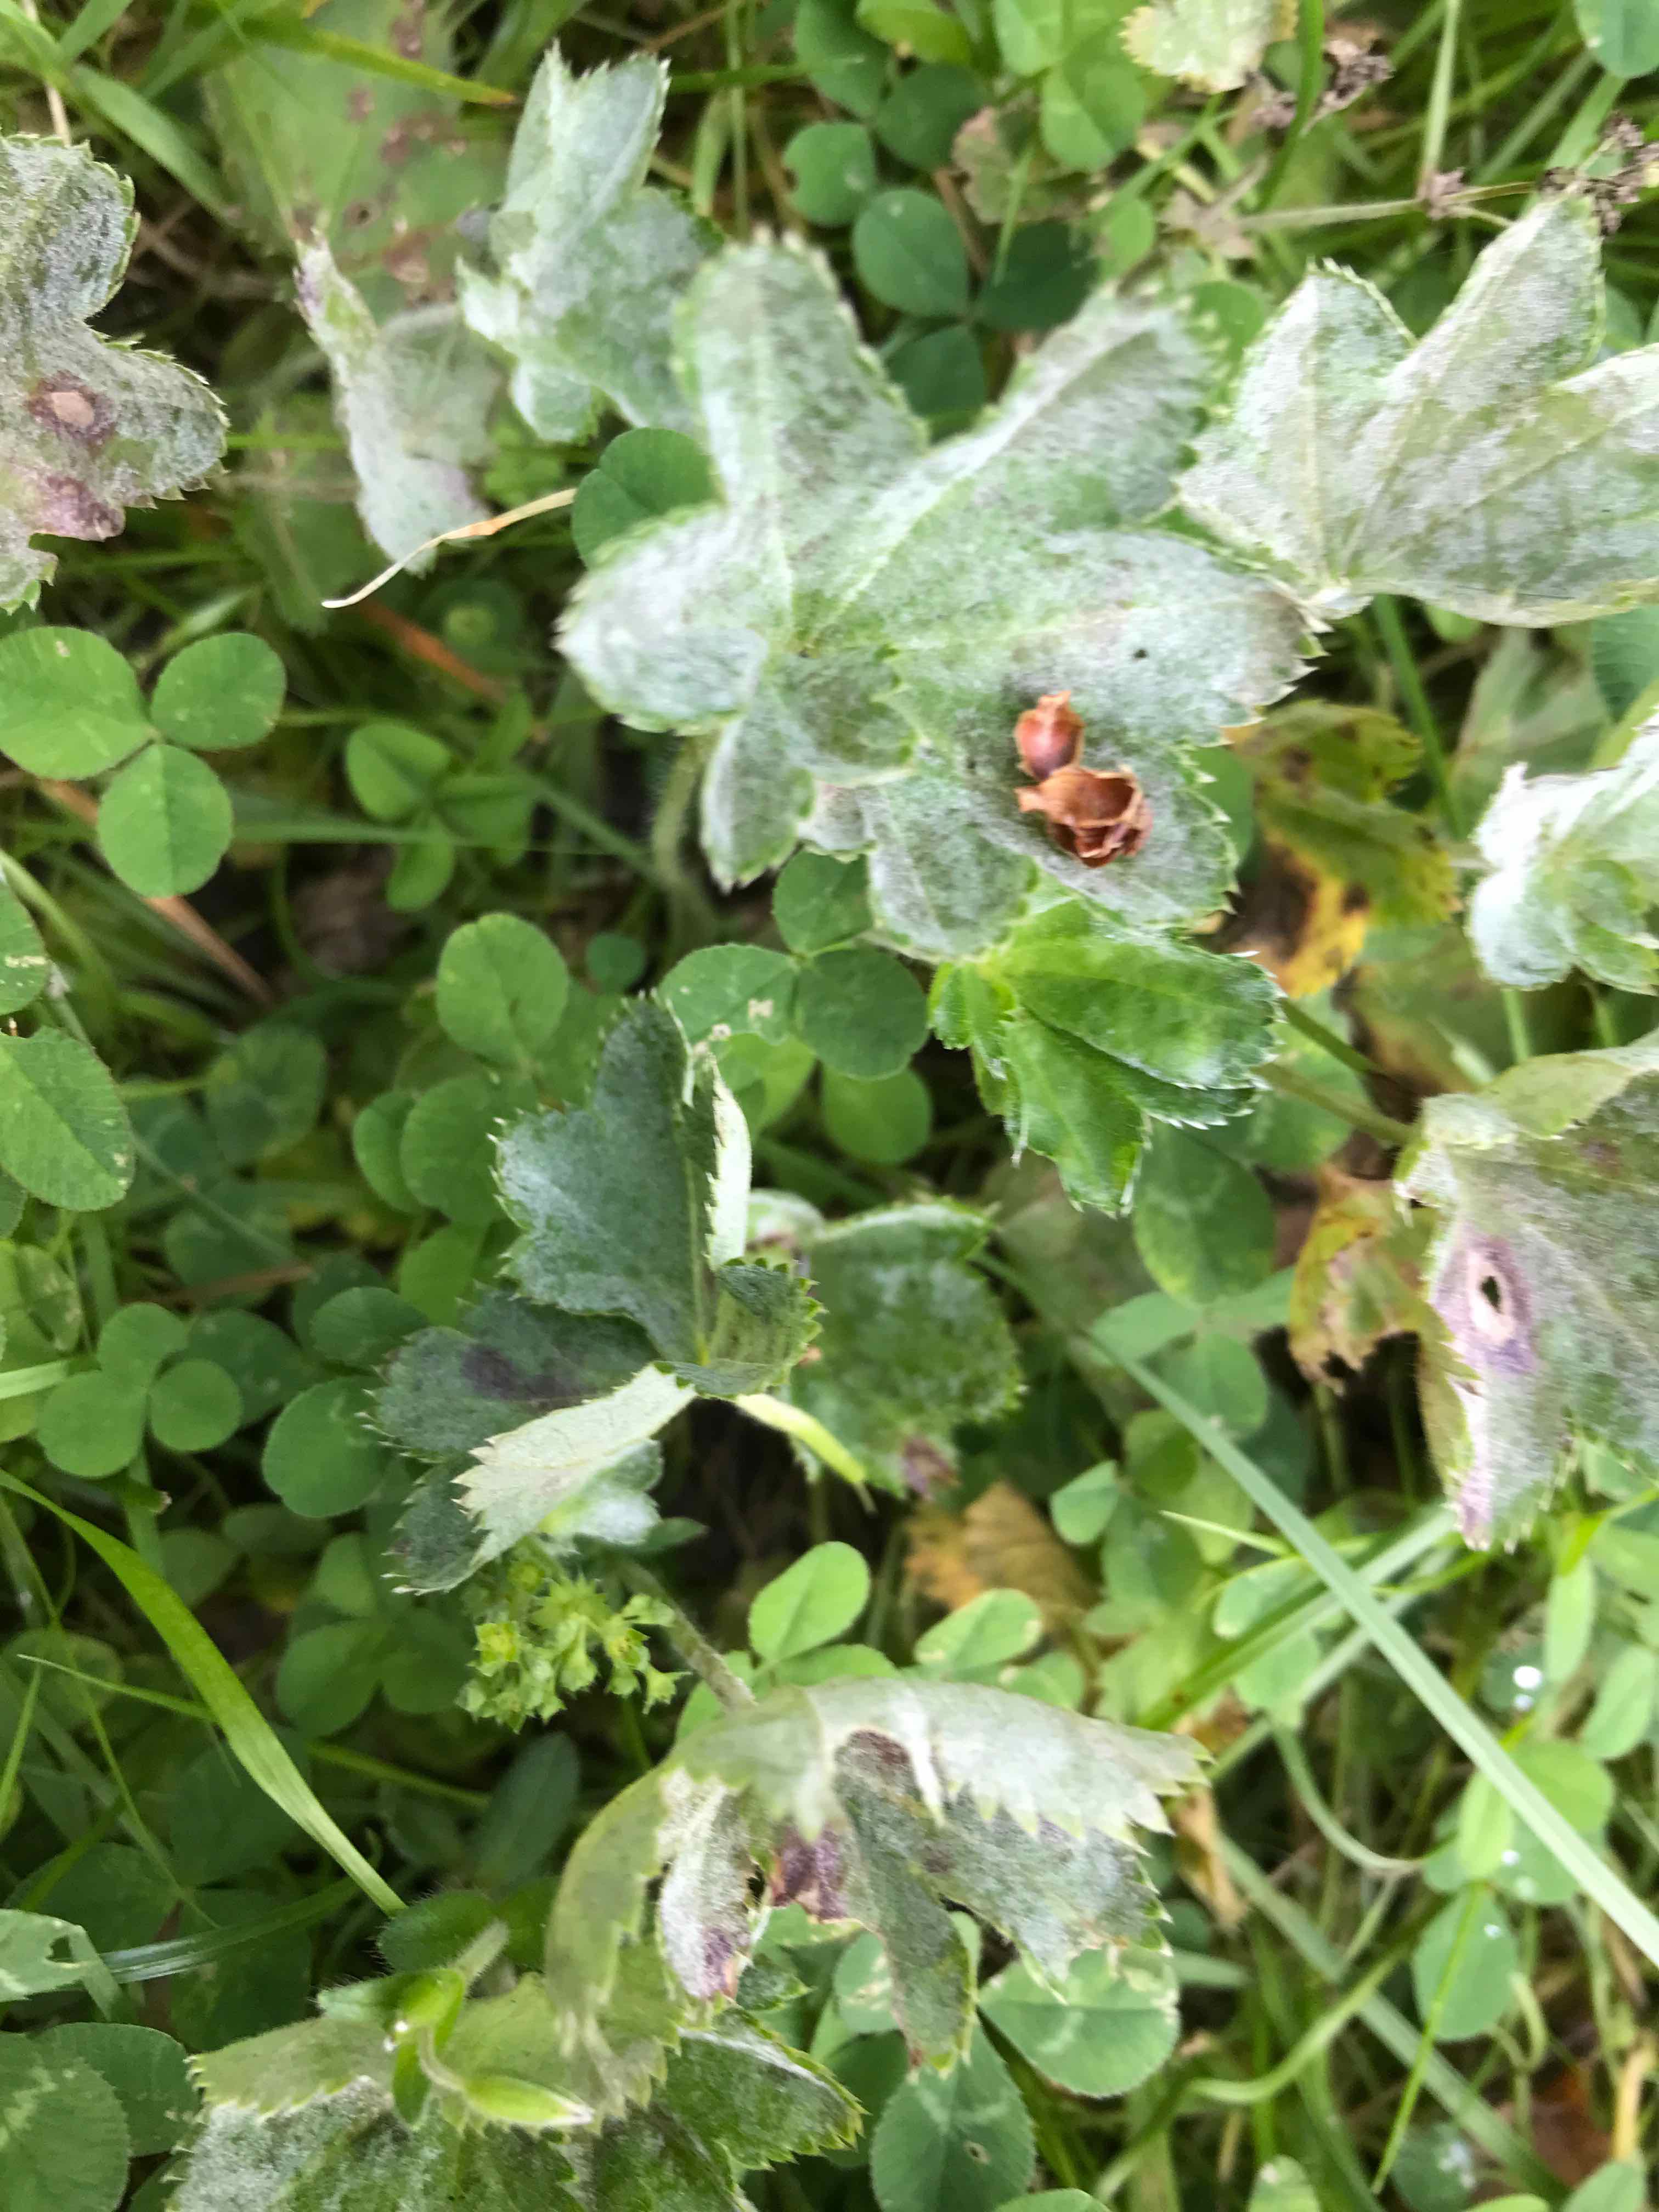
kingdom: Fungi
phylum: Ascomycota
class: Leotiomycetes
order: Helotiales
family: Erysiphaceae
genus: Podosphaera
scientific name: Podosphaera aphanis
